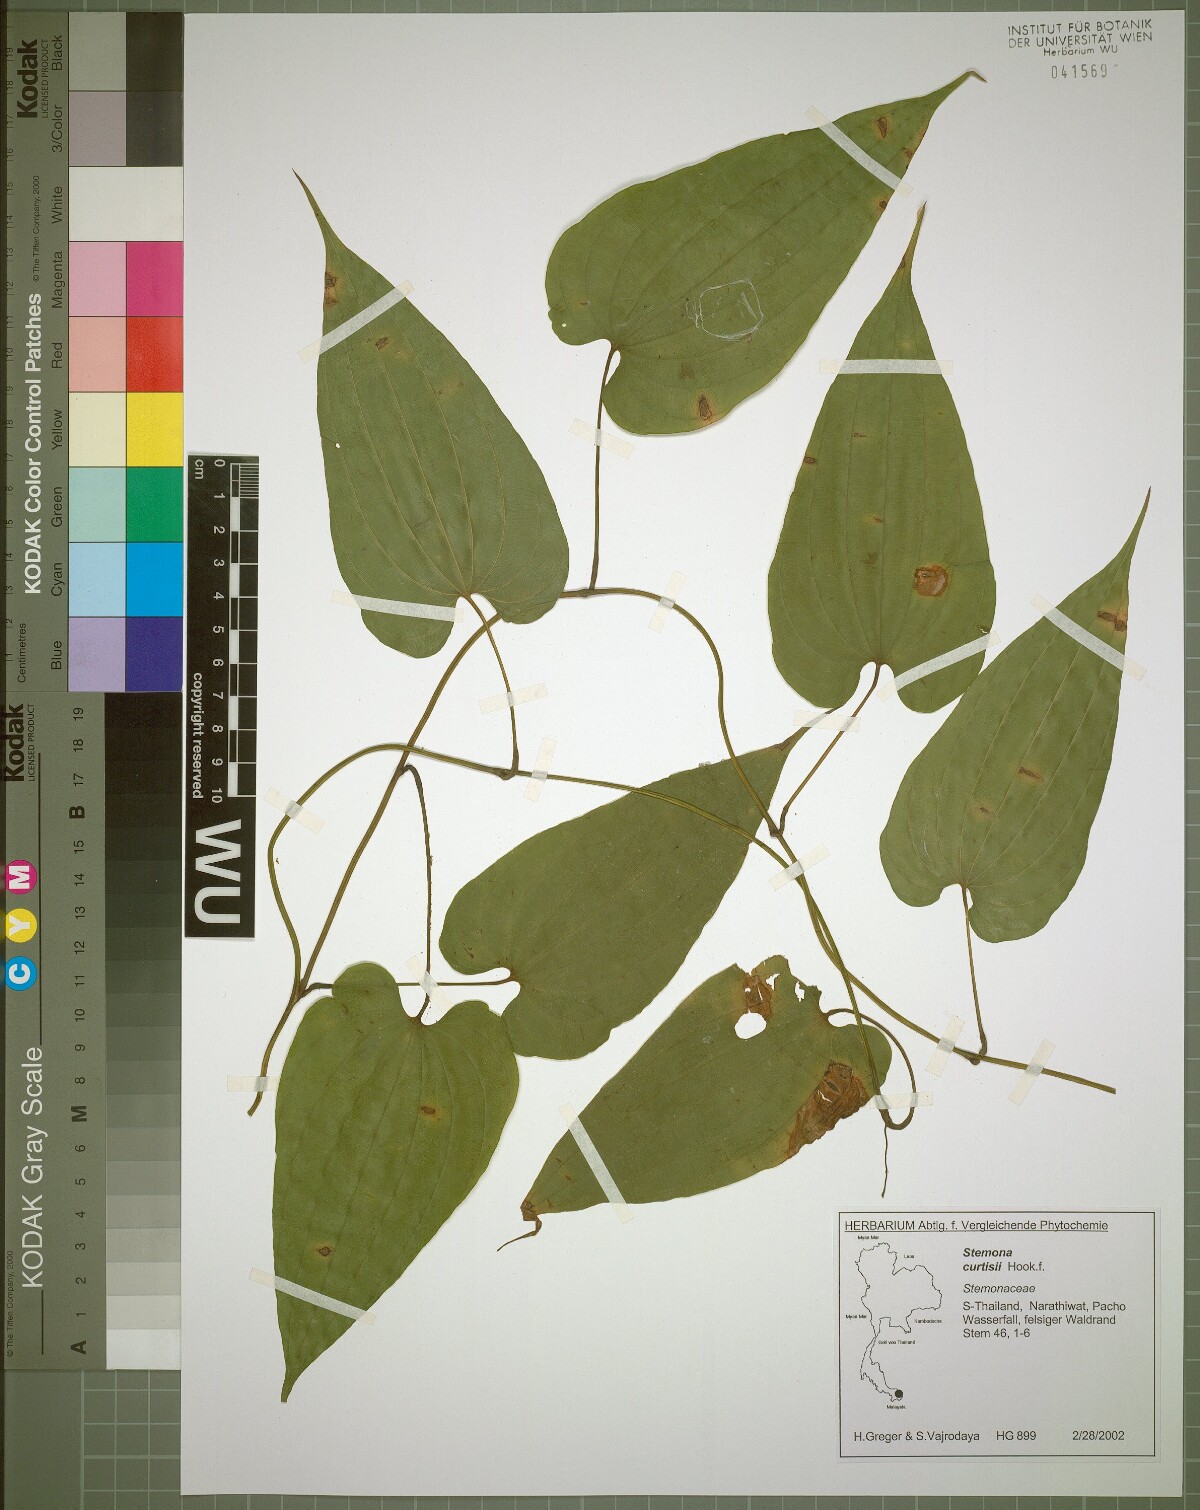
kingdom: Plantae
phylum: Tracheophyta
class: Liliopsida
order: Pandanales
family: Stemonaceae
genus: Stemona
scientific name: Stemona curtisii
